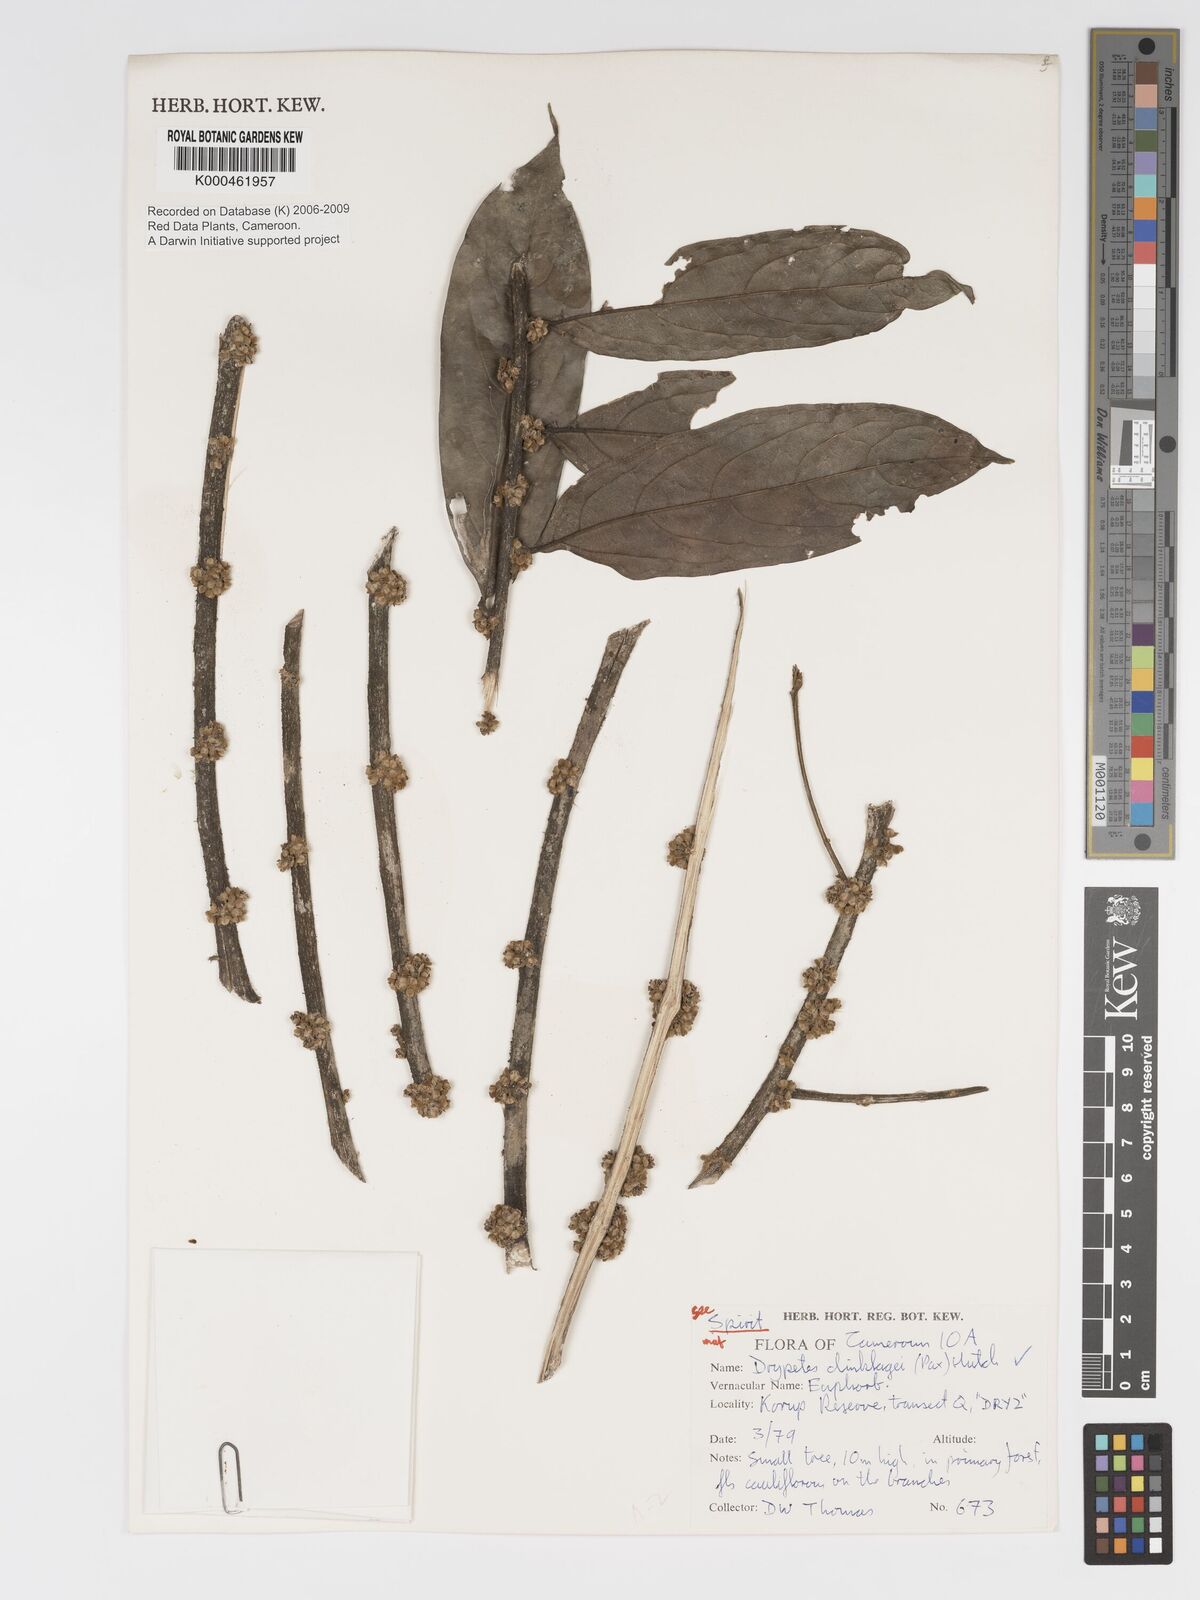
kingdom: Plantae
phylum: Tracheophyta
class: Magnoliopsida
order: Malpighiales
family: Putranjivaceae
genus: Drypetes
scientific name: Drypetes dinklagei
